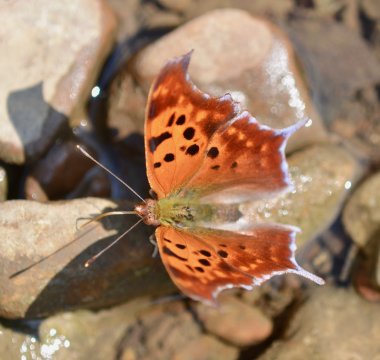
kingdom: Animalia
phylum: Arthropoda
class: Insecta
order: Lepidoptera
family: Nymphalidae
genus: Polygonia
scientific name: Polygonia interrogationis
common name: Question Mark
